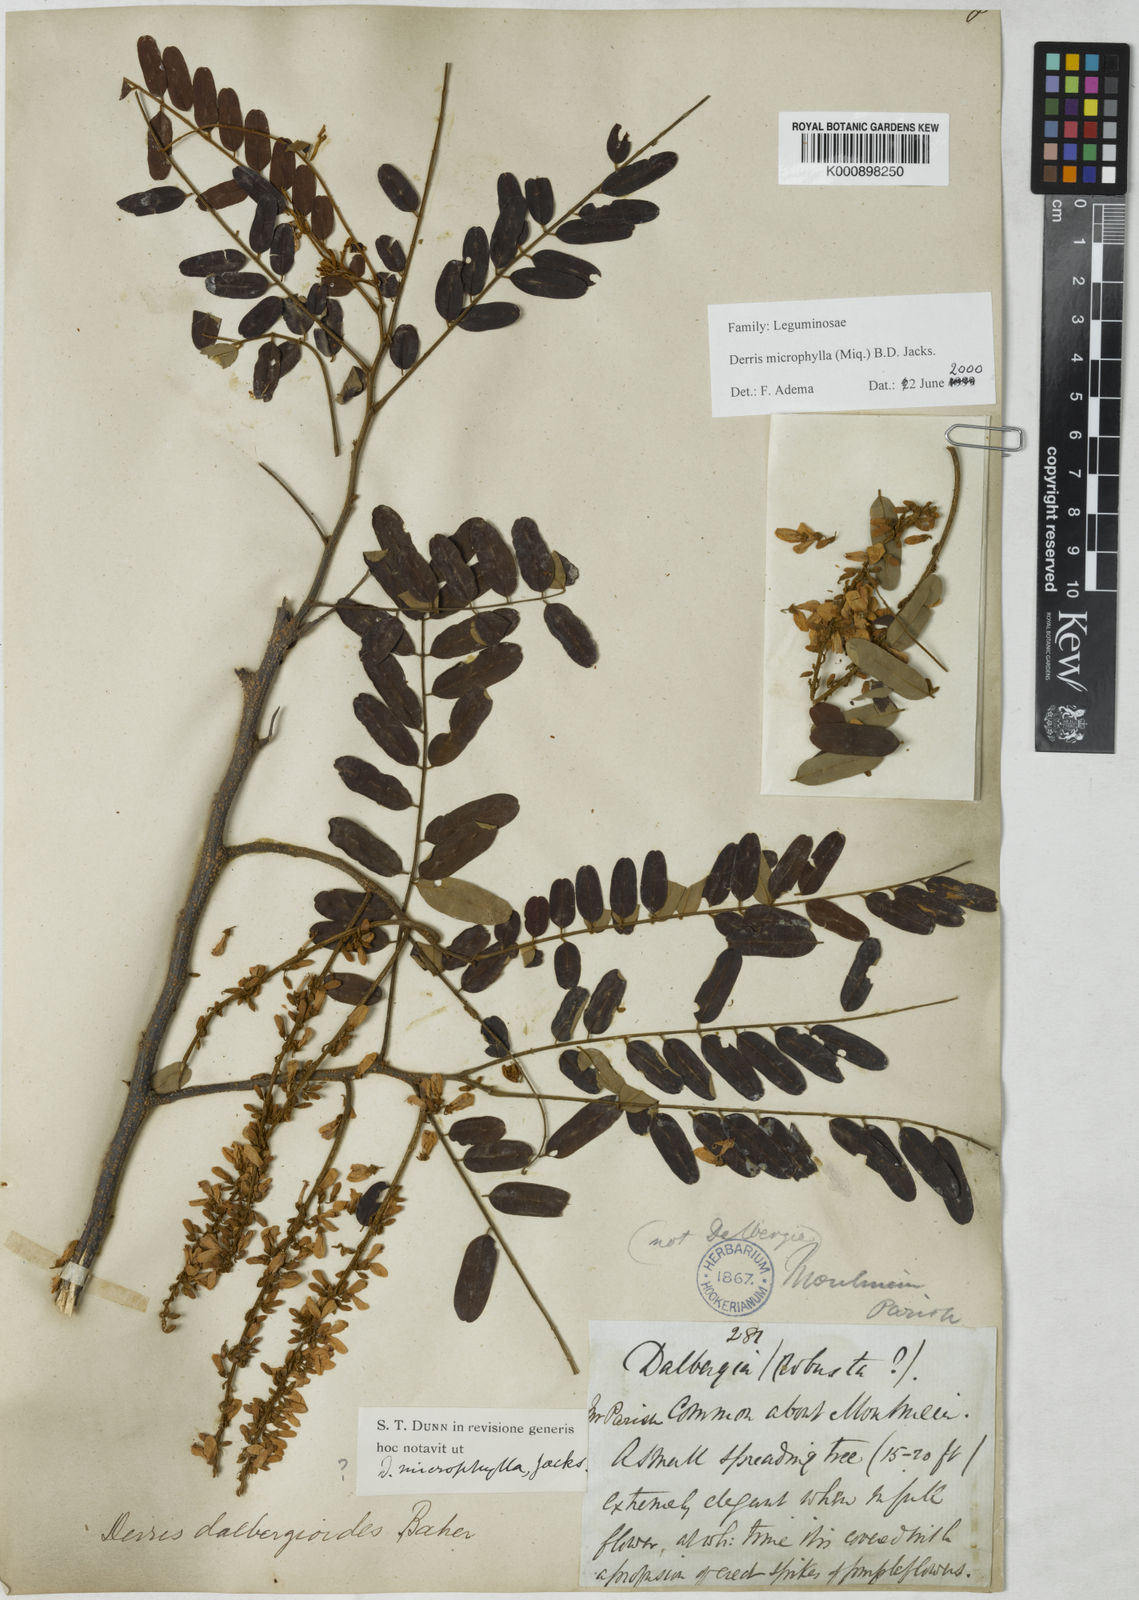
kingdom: Plantae
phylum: Tracheophyta
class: Magnoliopsida
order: Fabales
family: Fabaceae
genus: Brachypterum
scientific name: Brachypterum microphyllum
